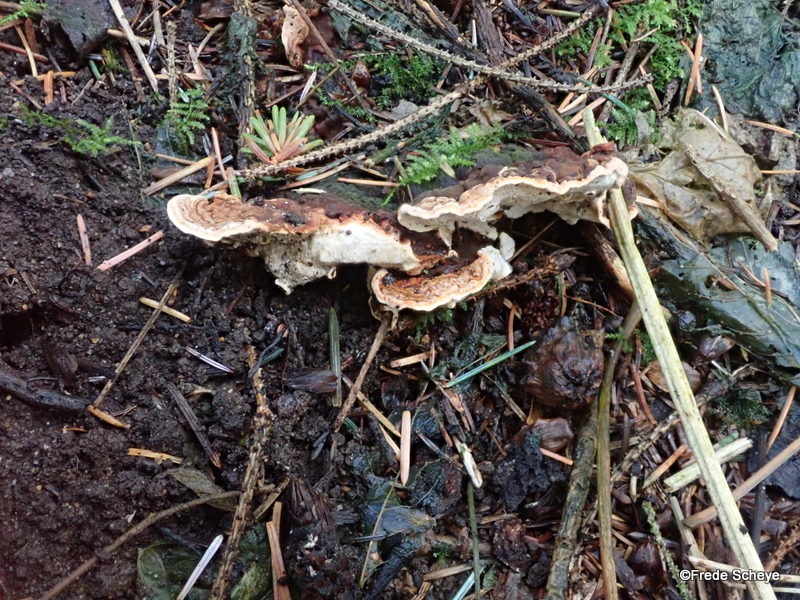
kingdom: Fungi
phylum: Basidiomycota
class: Agaricomycetes
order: Russulales
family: Bondarzewiaceae
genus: Heterobasidion
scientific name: Heterobasidion annosum
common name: almindelig rodfordærver
